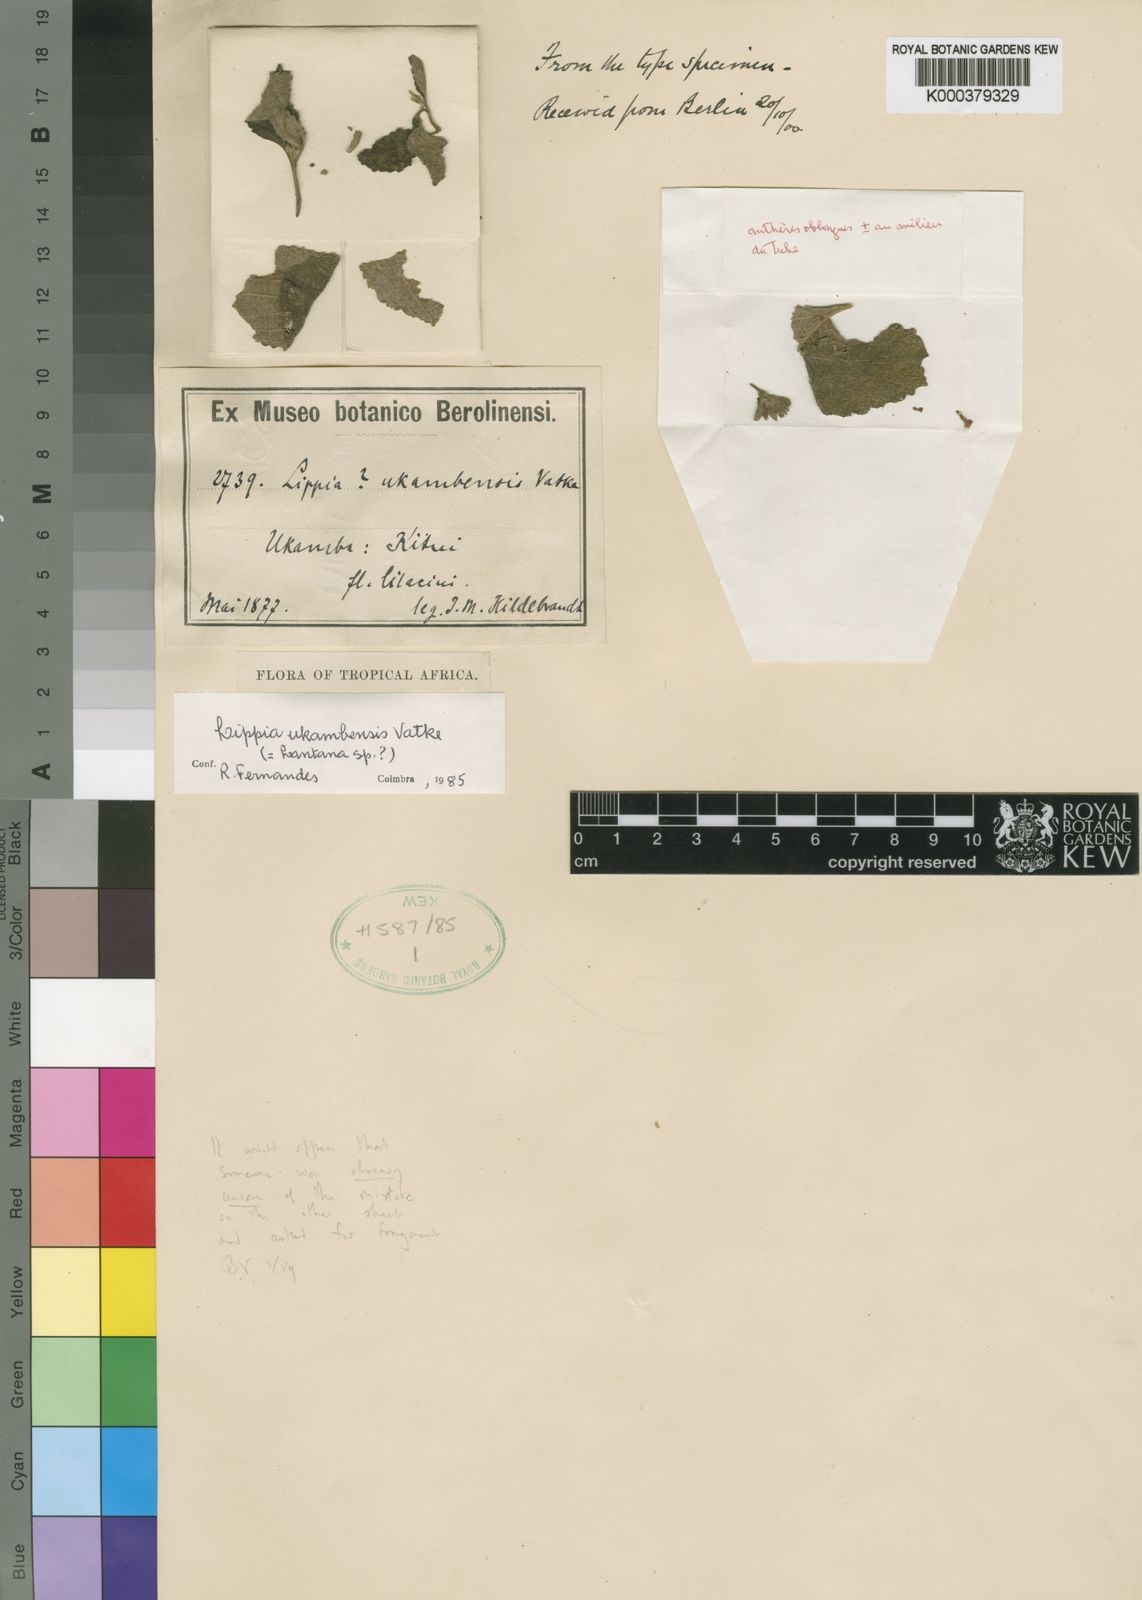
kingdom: Plantae
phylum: Tracheophyta
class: Magnoliopsida
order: Lamiales
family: Verbenaceae
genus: Lantana
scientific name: Lantana ukambensis
